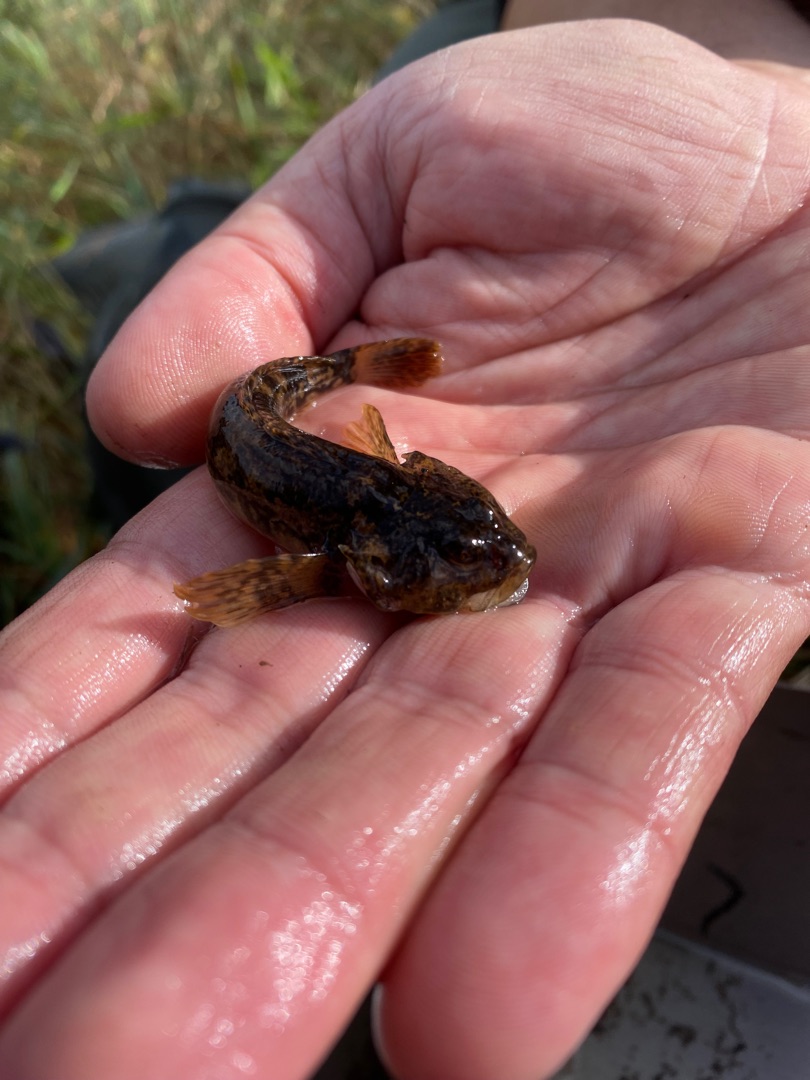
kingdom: Animalia
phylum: Chordata
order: Scorpaeniformes
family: Cottidae
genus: Cottus
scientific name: Cottus gobio
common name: Hvidfinnet ferskvandsulk
